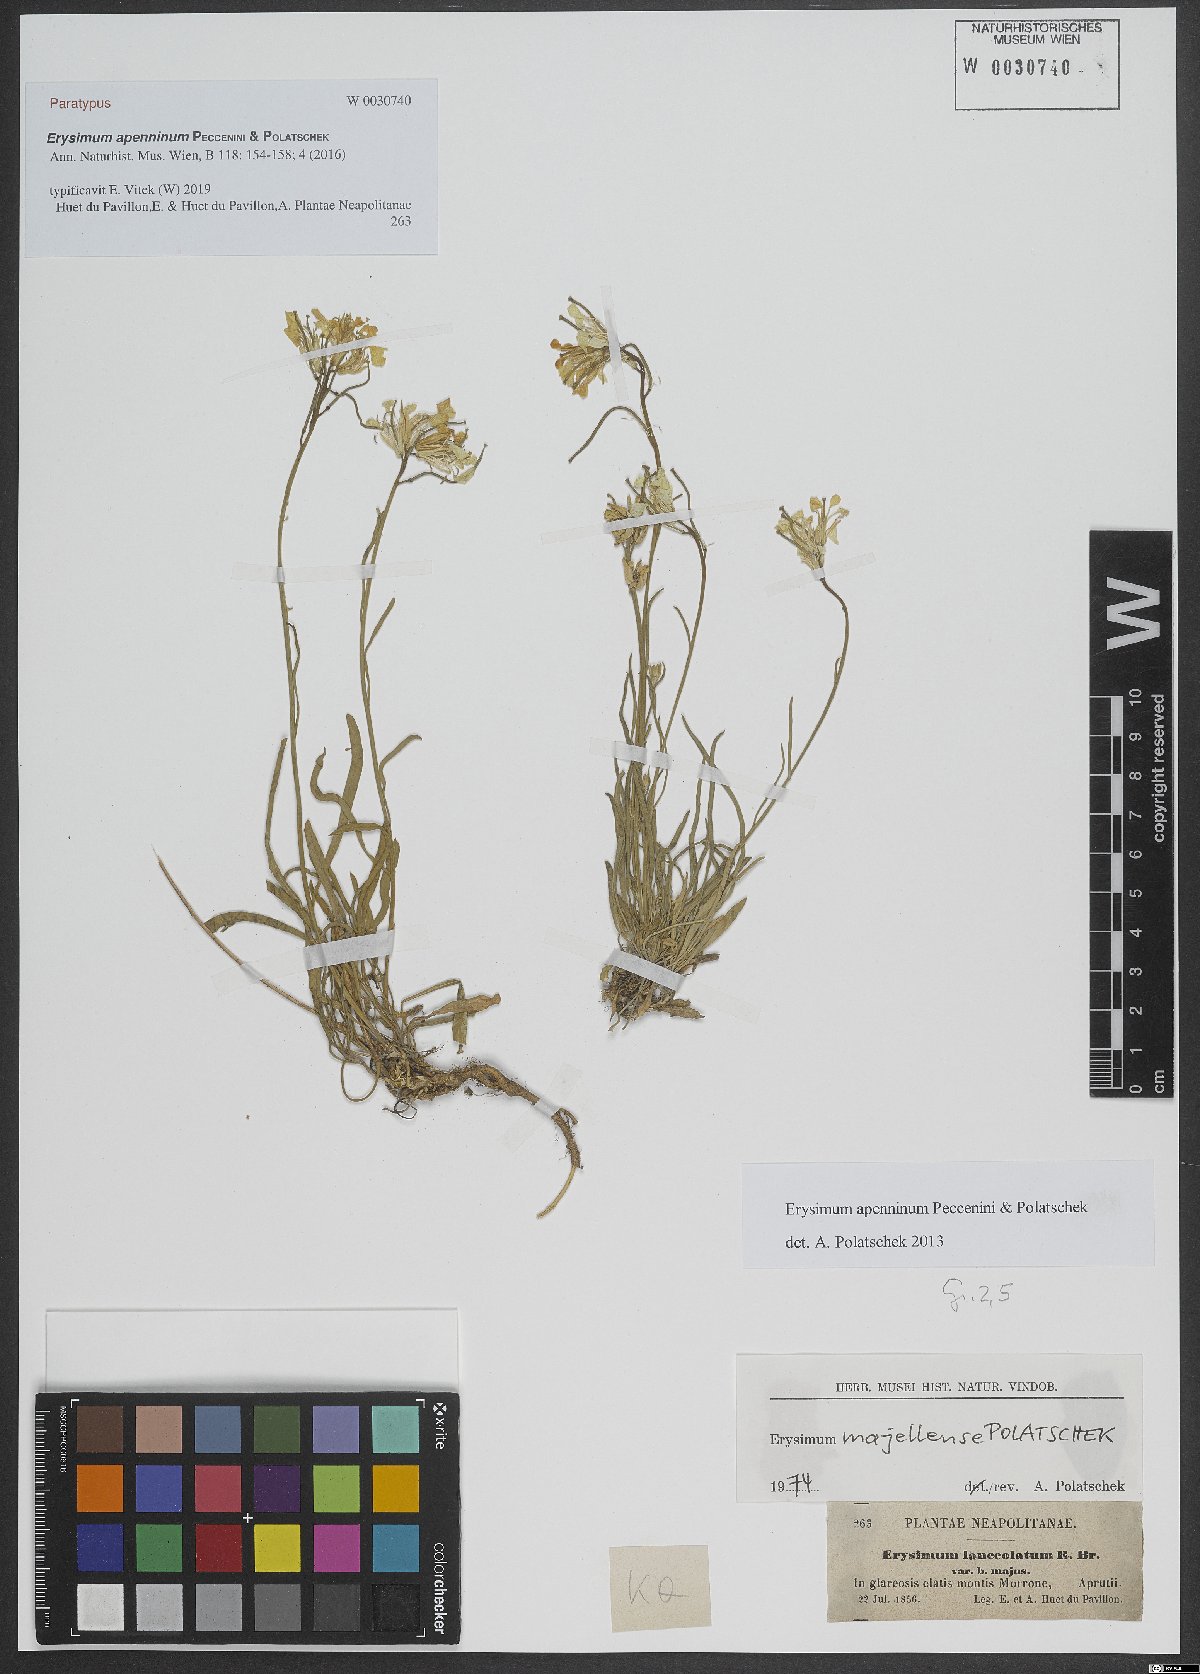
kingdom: Plantae
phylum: Tracheophyta
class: Magnoliopsida
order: Brassicales
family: Brassicaceae
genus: Erysimum
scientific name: Erysimum apenninum
